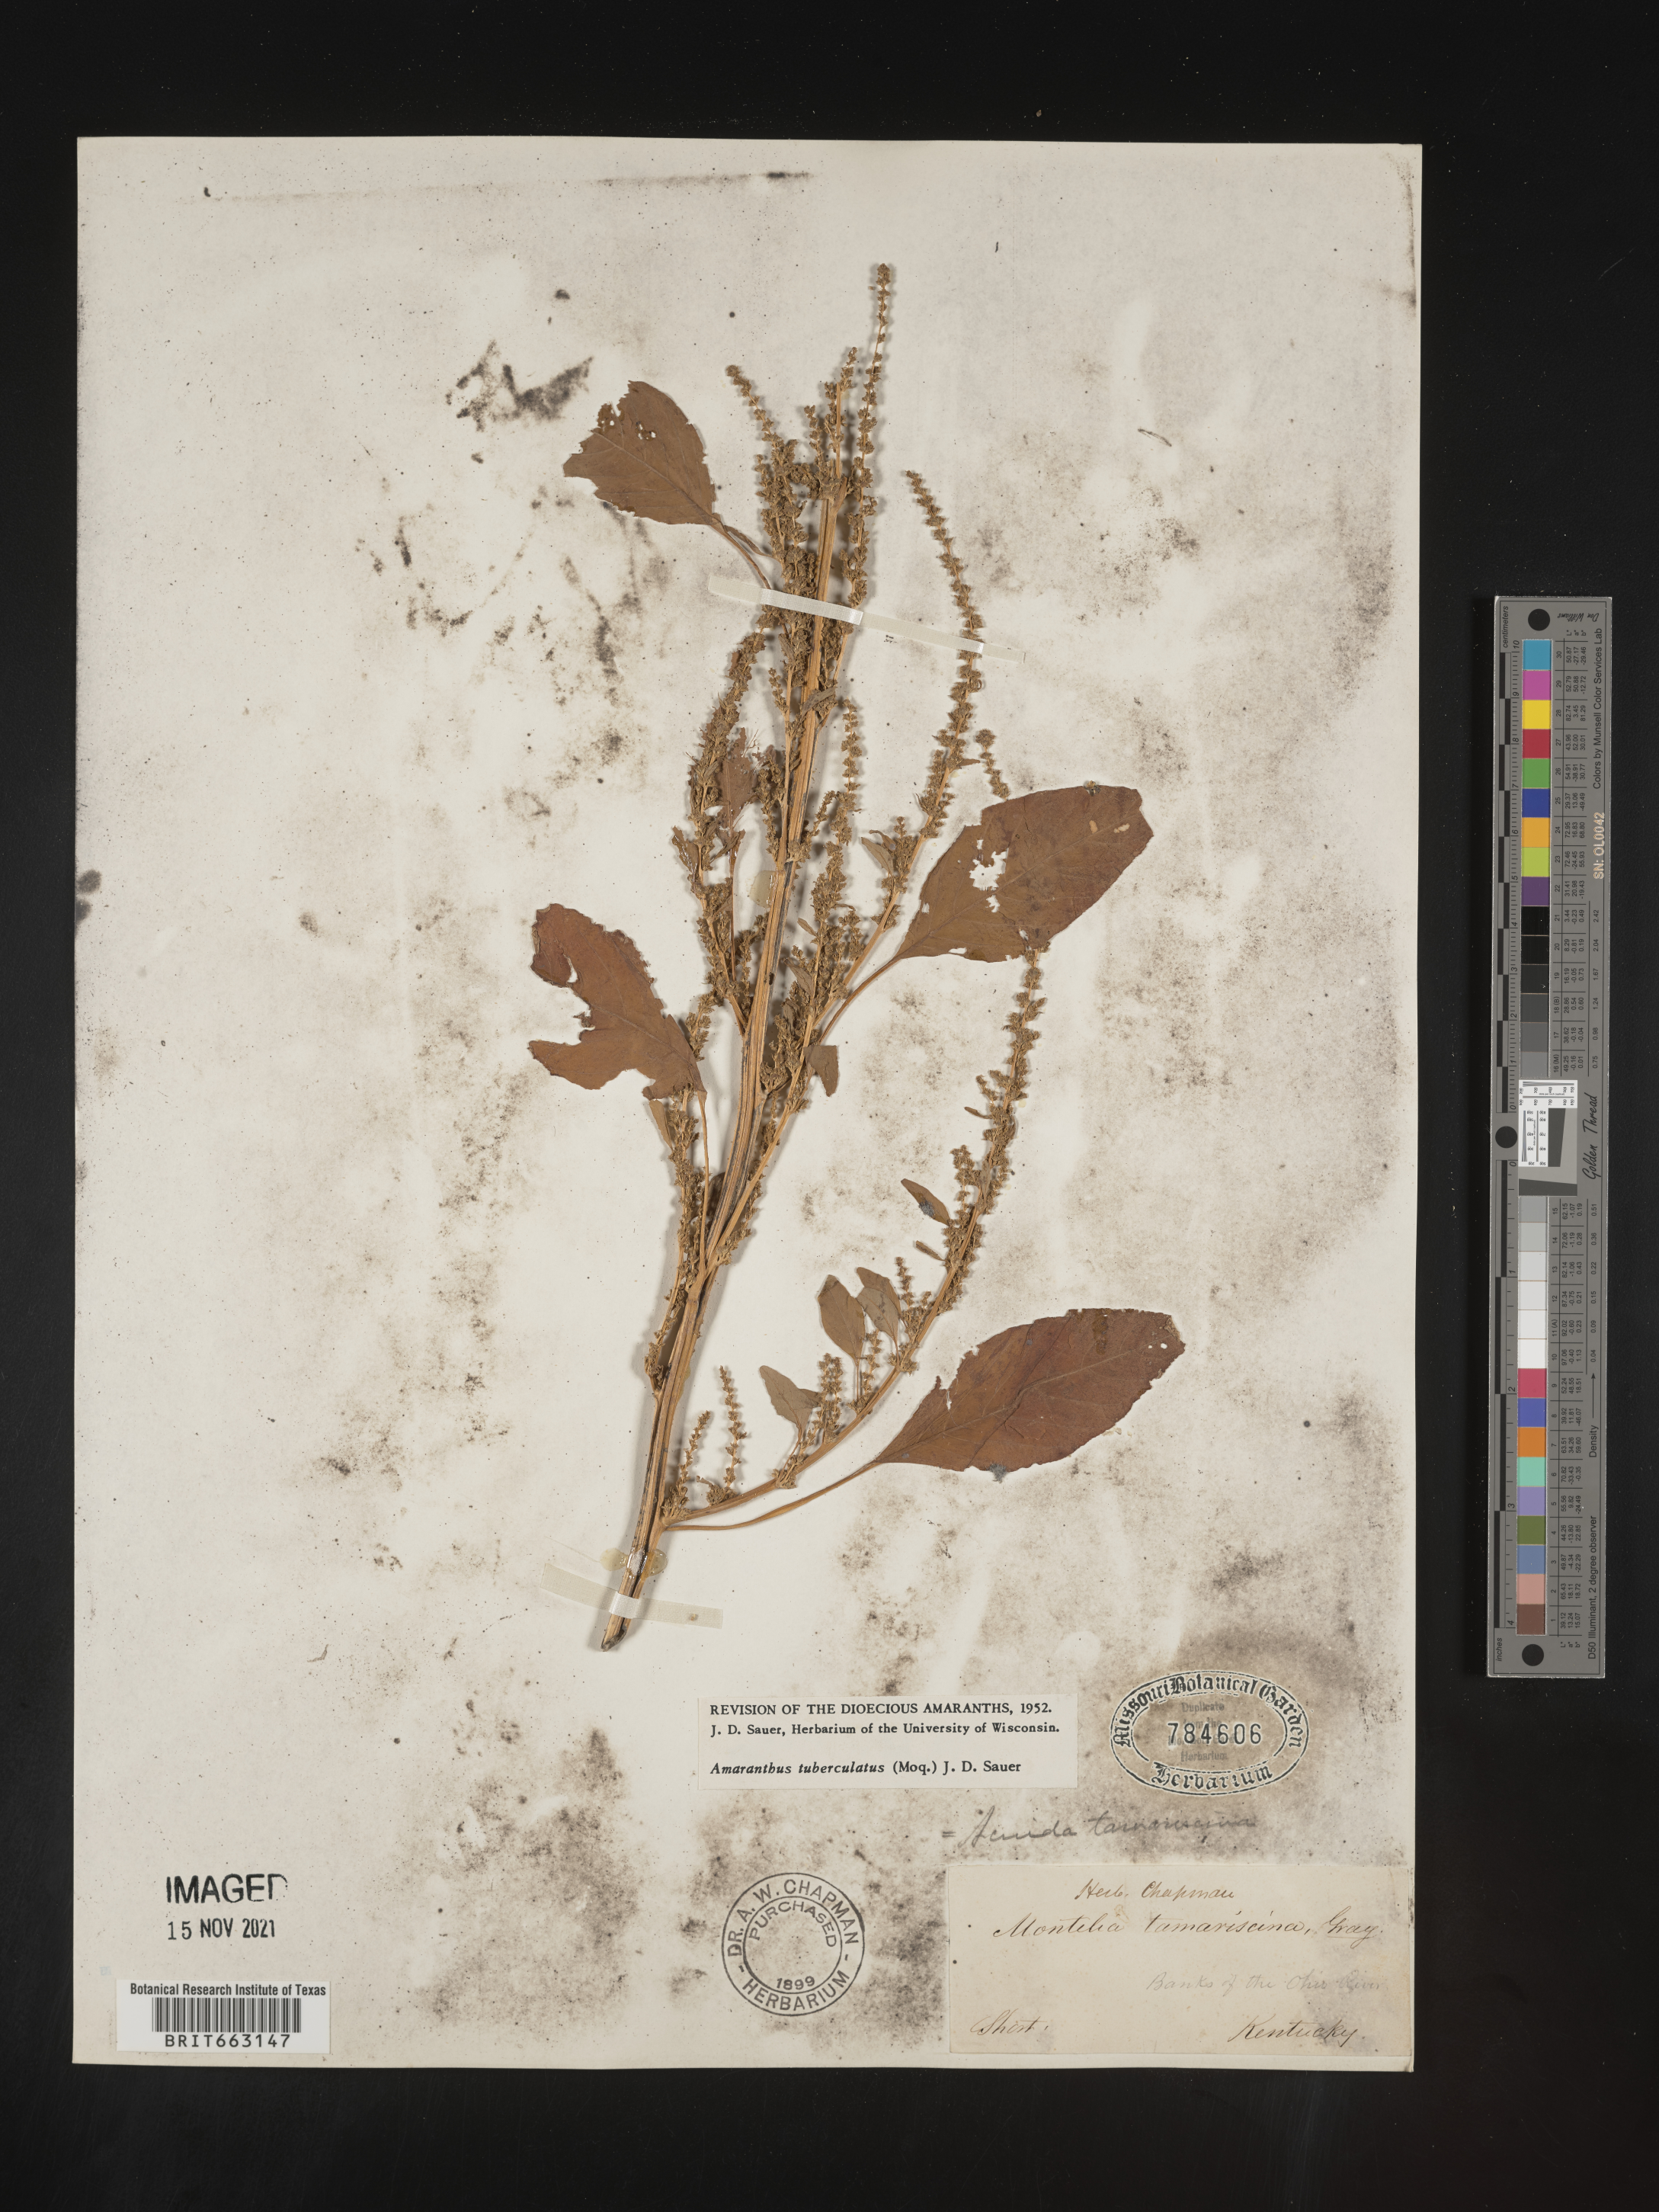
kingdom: Plantae
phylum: Tracheophyta
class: Magnoliopsida
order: Caryophyllales
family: Amaranthaceae
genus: Amaranthus
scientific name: Amaranthus tuberculatus
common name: Rough-fruit amaranth
